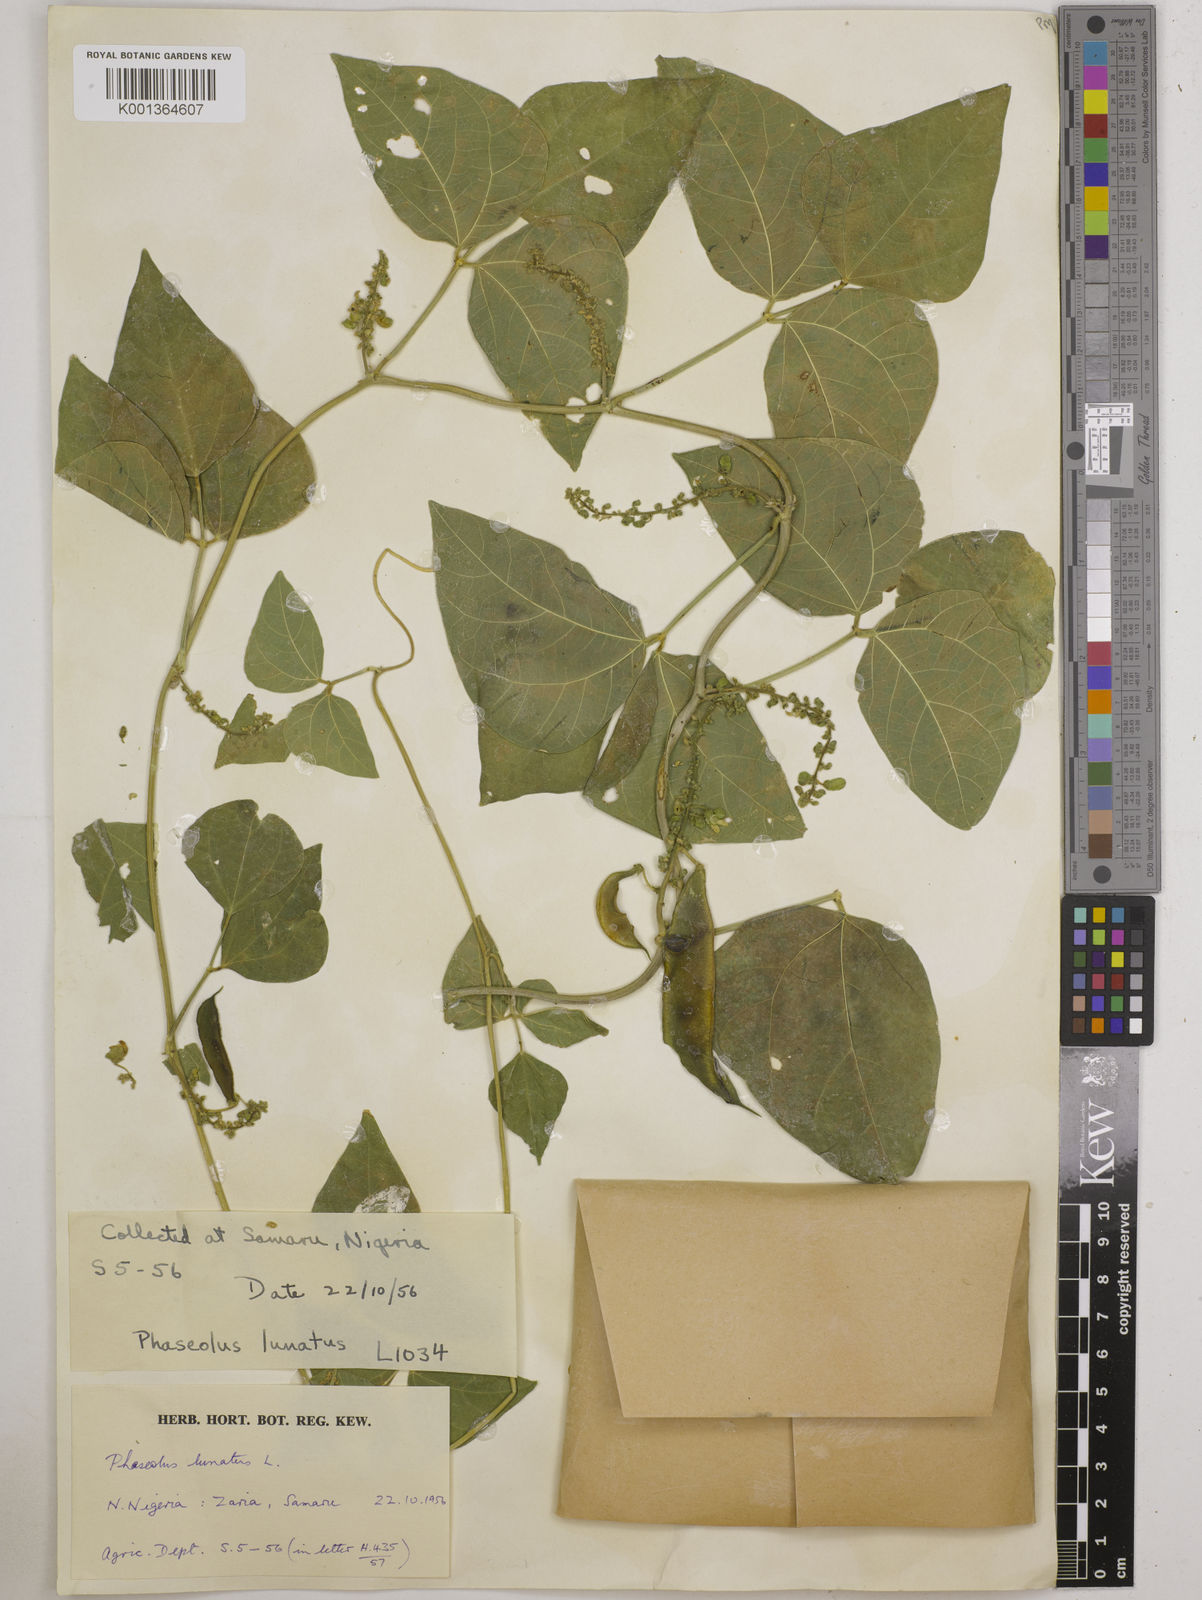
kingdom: Plantae
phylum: Tracheophyta
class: Magnoliopsida
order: Fabales
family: Fabaceae
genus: Phaseolus
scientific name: Phaseolus lunatus
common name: Sieva bean
